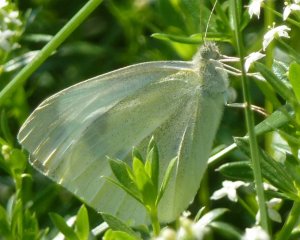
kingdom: Animalia
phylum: Arthropoda
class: Insecta
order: Lepidoptera
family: Pieridae
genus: Pieris
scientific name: Pieris rapae
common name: Cabbage White
